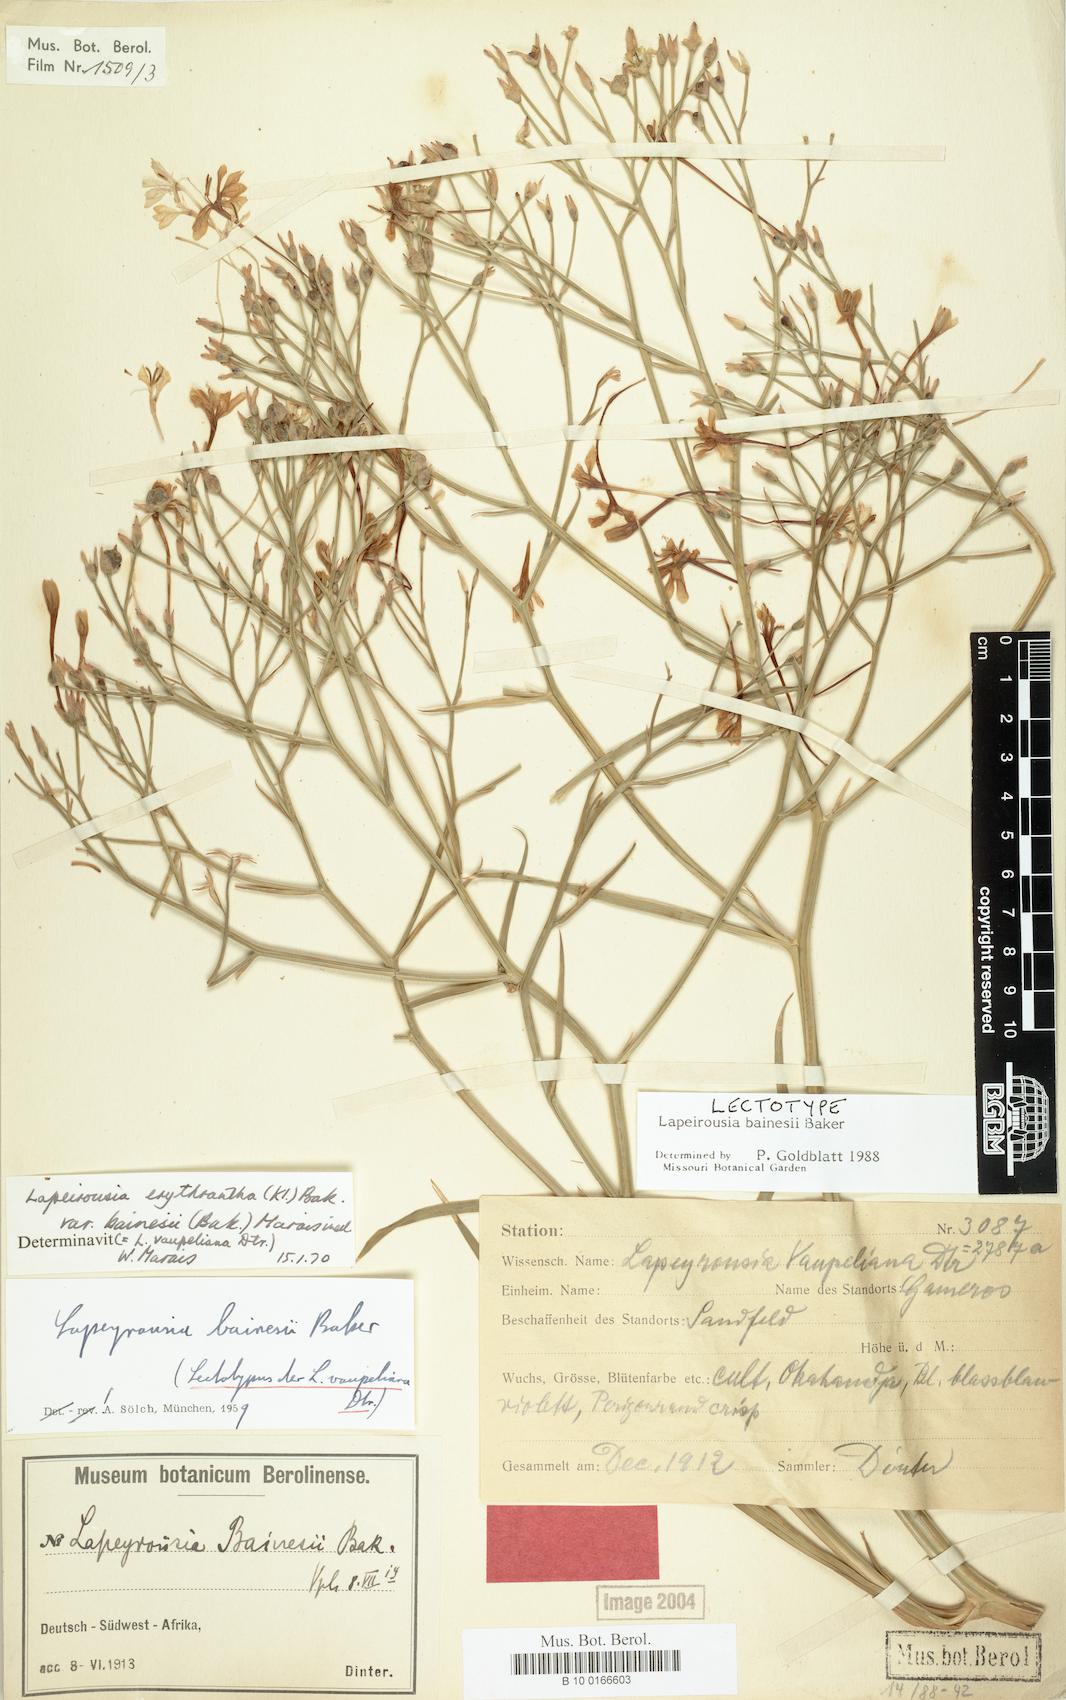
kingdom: Plantae
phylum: Tracheophyta
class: Liliopsida
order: Asparagales
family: Iridaceae
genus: Afrosolen
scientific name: Afrosolen bainesii
